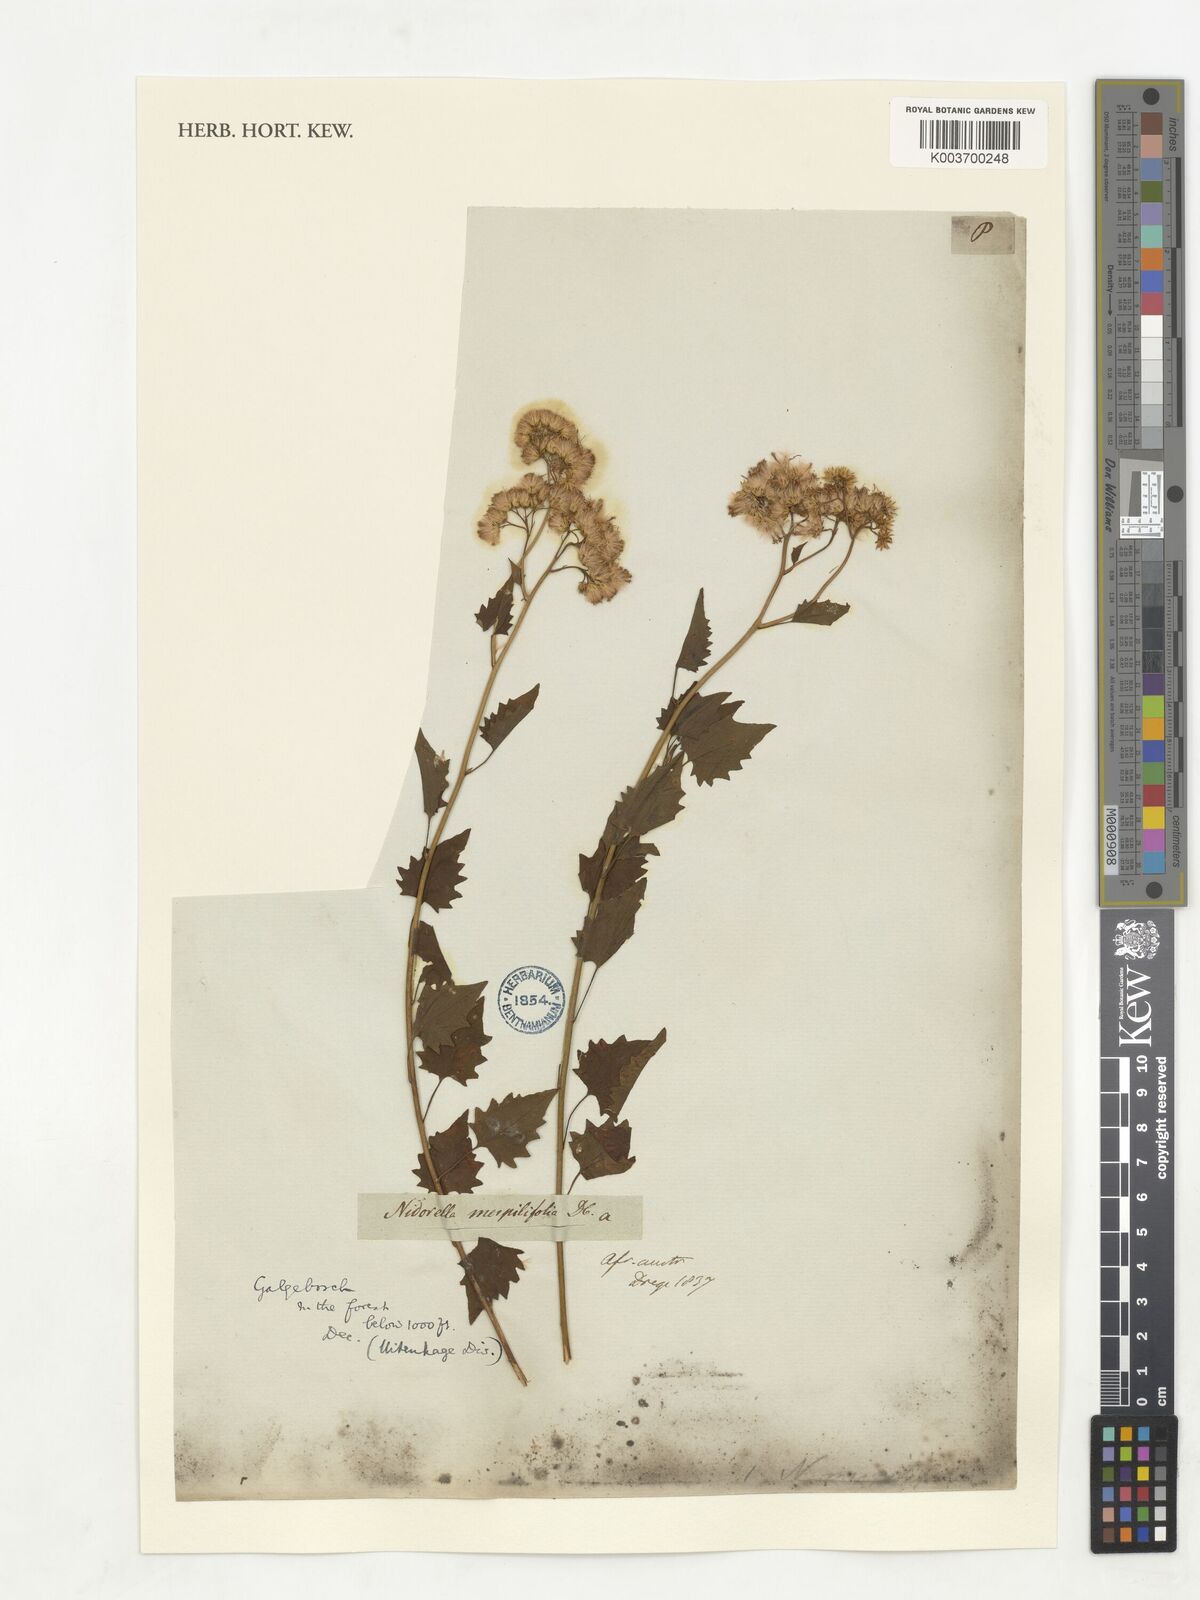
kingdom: Plantae
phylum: Tracheophyta
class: Magnoliopsida
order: Asterales
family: Asteraceae
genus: Microglossa
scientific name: Microglossa mespilifolia
